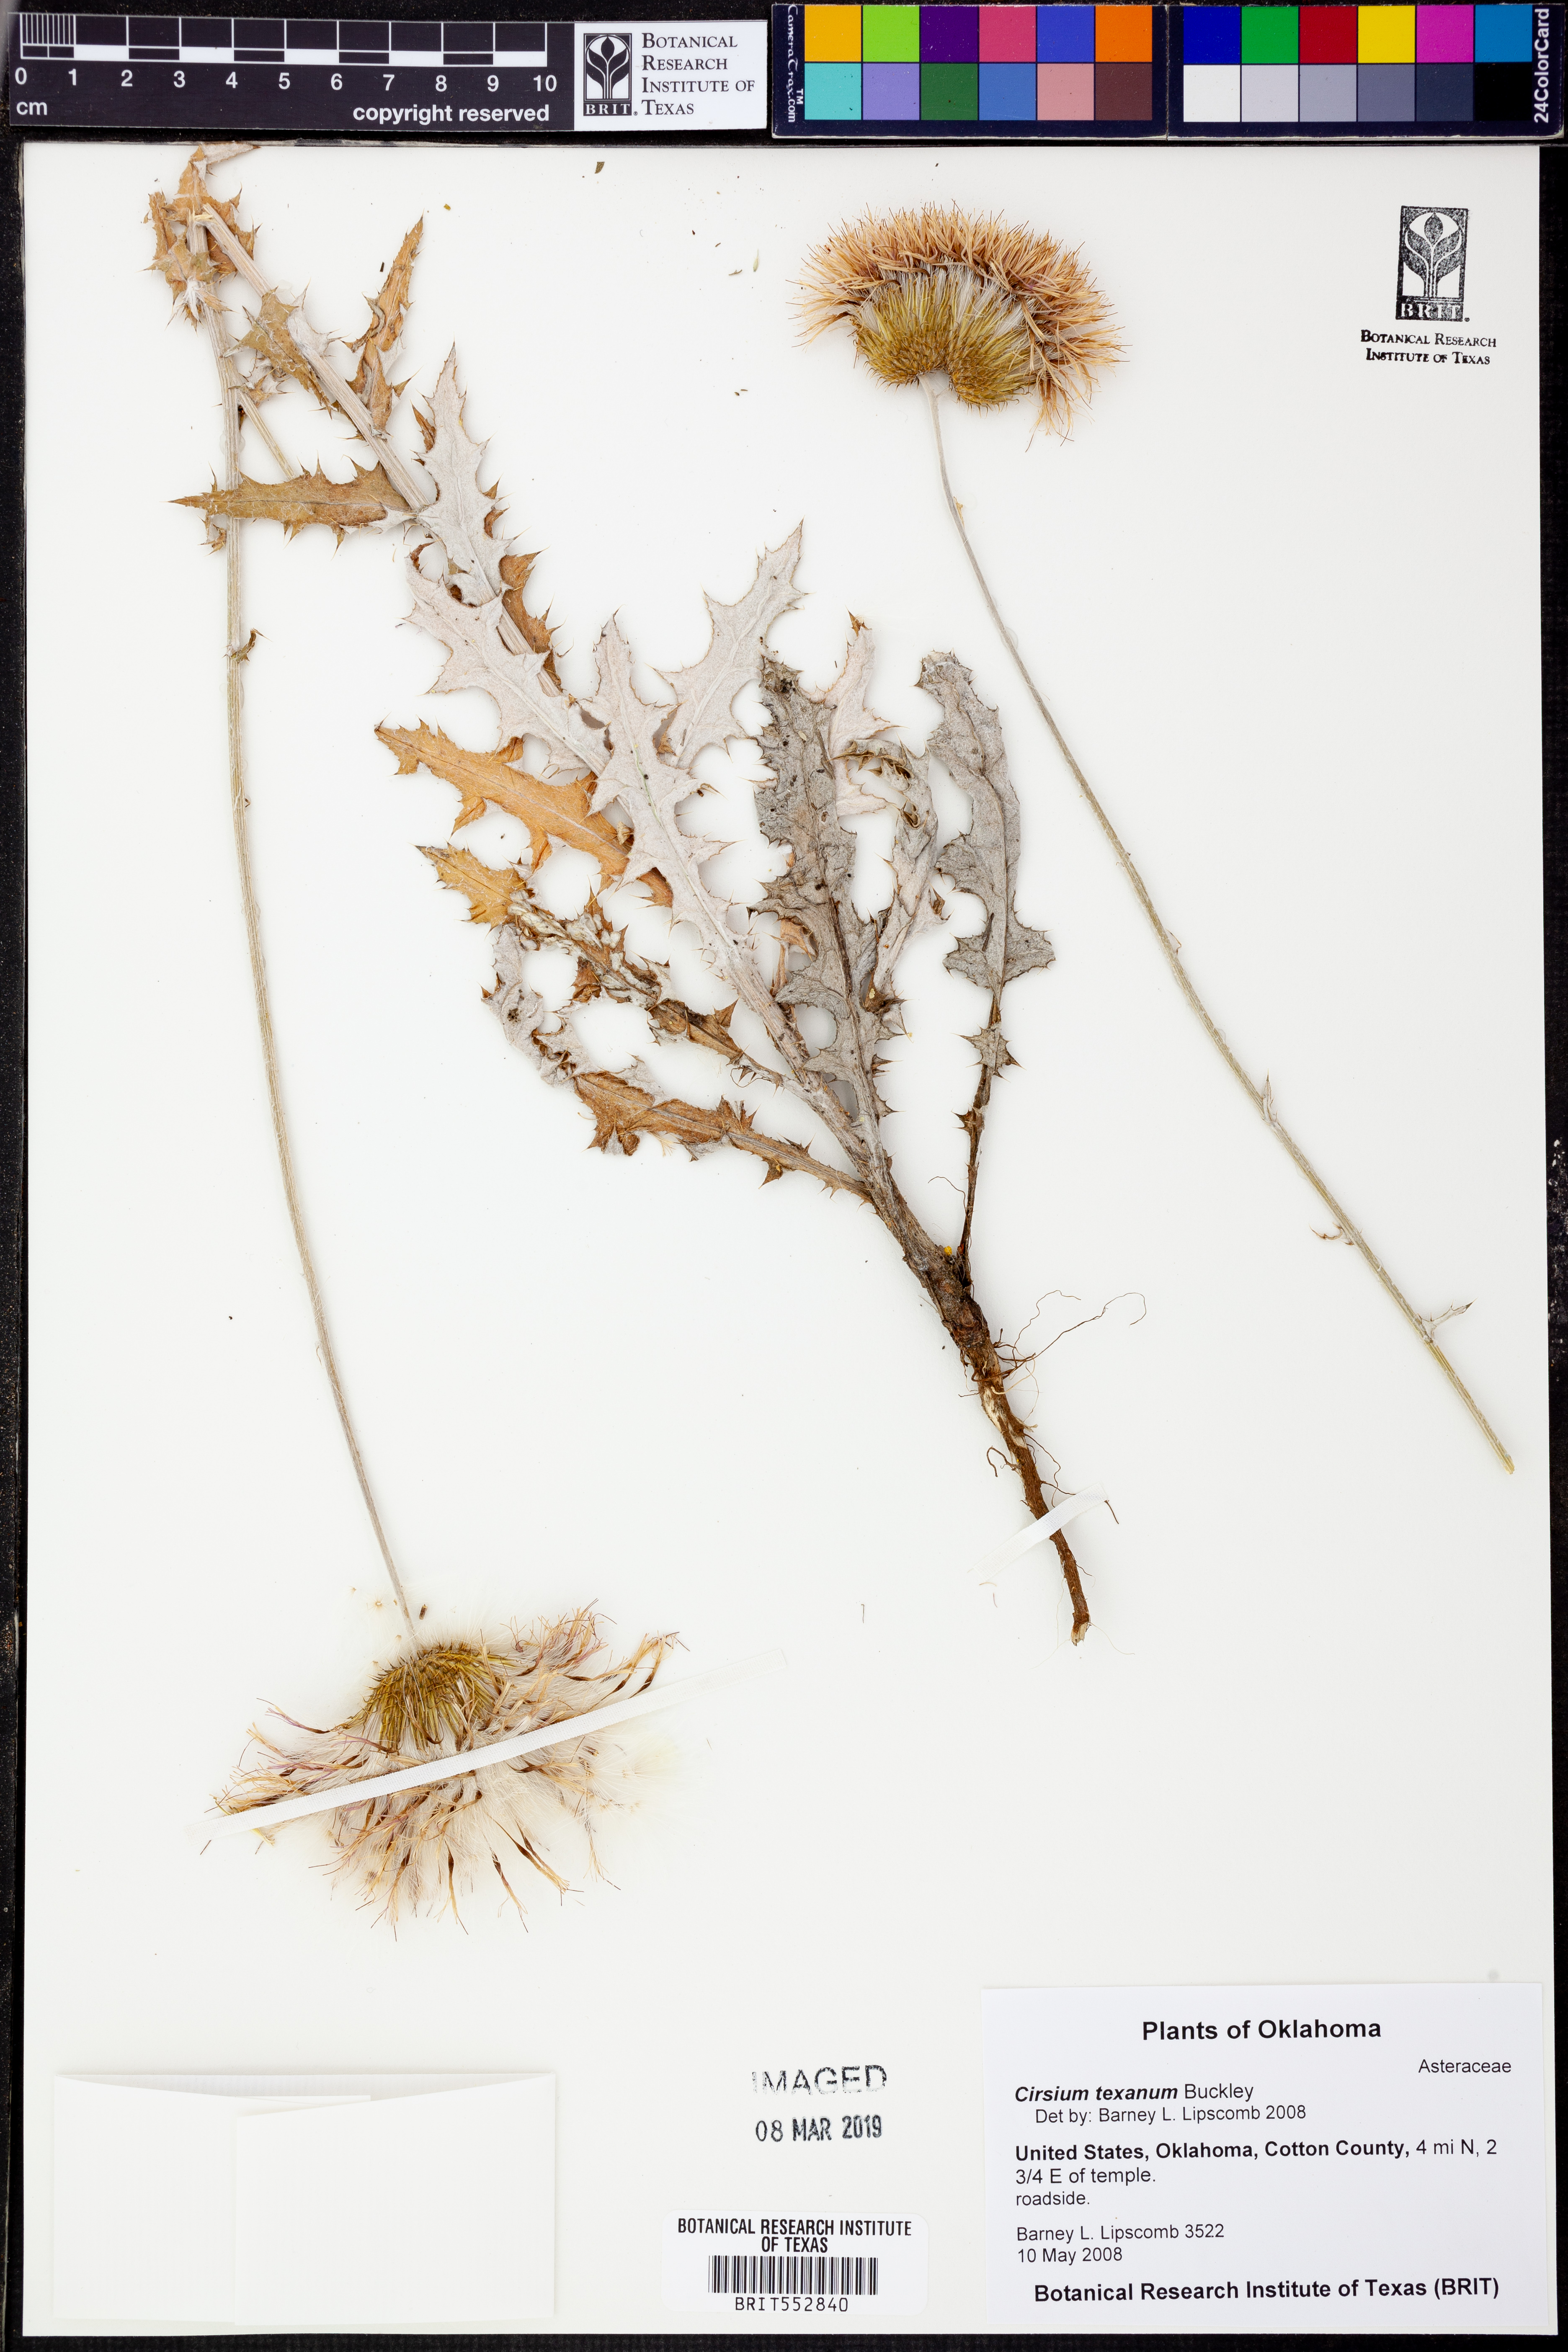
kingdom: Plantae
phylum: Tracheophyta
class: Magnoliopsida
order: Asterales
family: Asteraceae
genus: Cirsium
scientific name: Cirsium texanum
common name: Texas purple thistle
